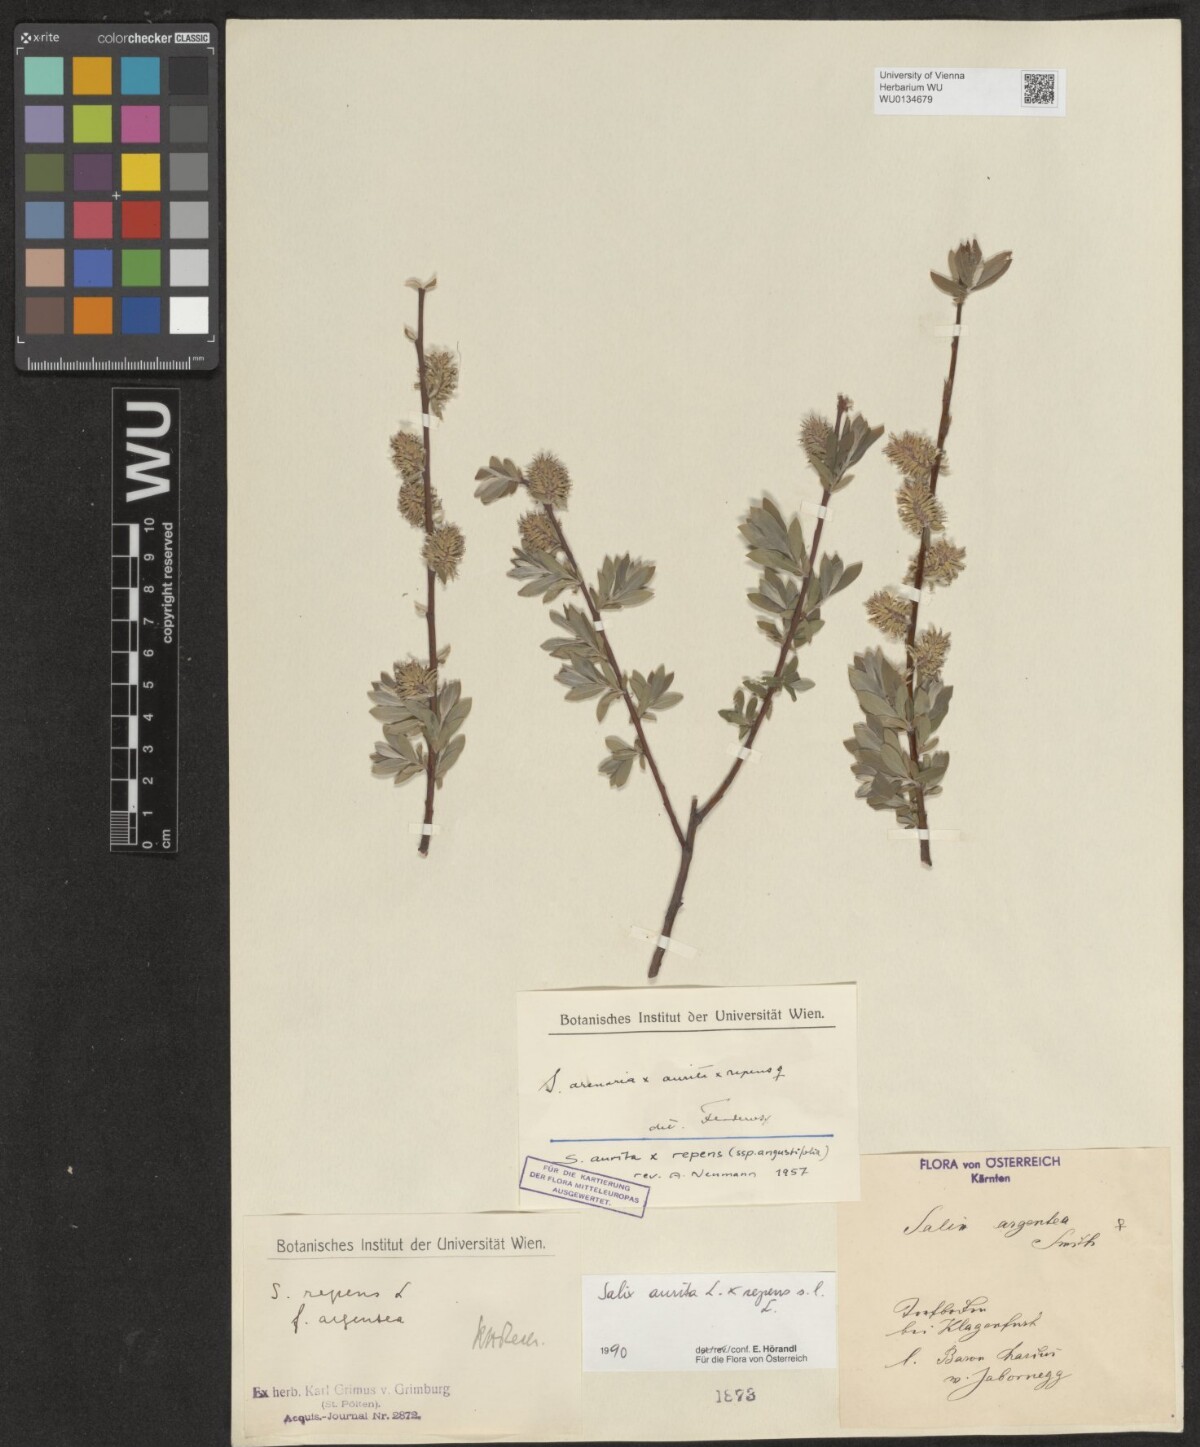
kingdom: Plantae
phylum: Tracheophyta
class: Magnoliopsida
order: Malpighiales
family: Salicaceae
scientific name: Salicaceae
